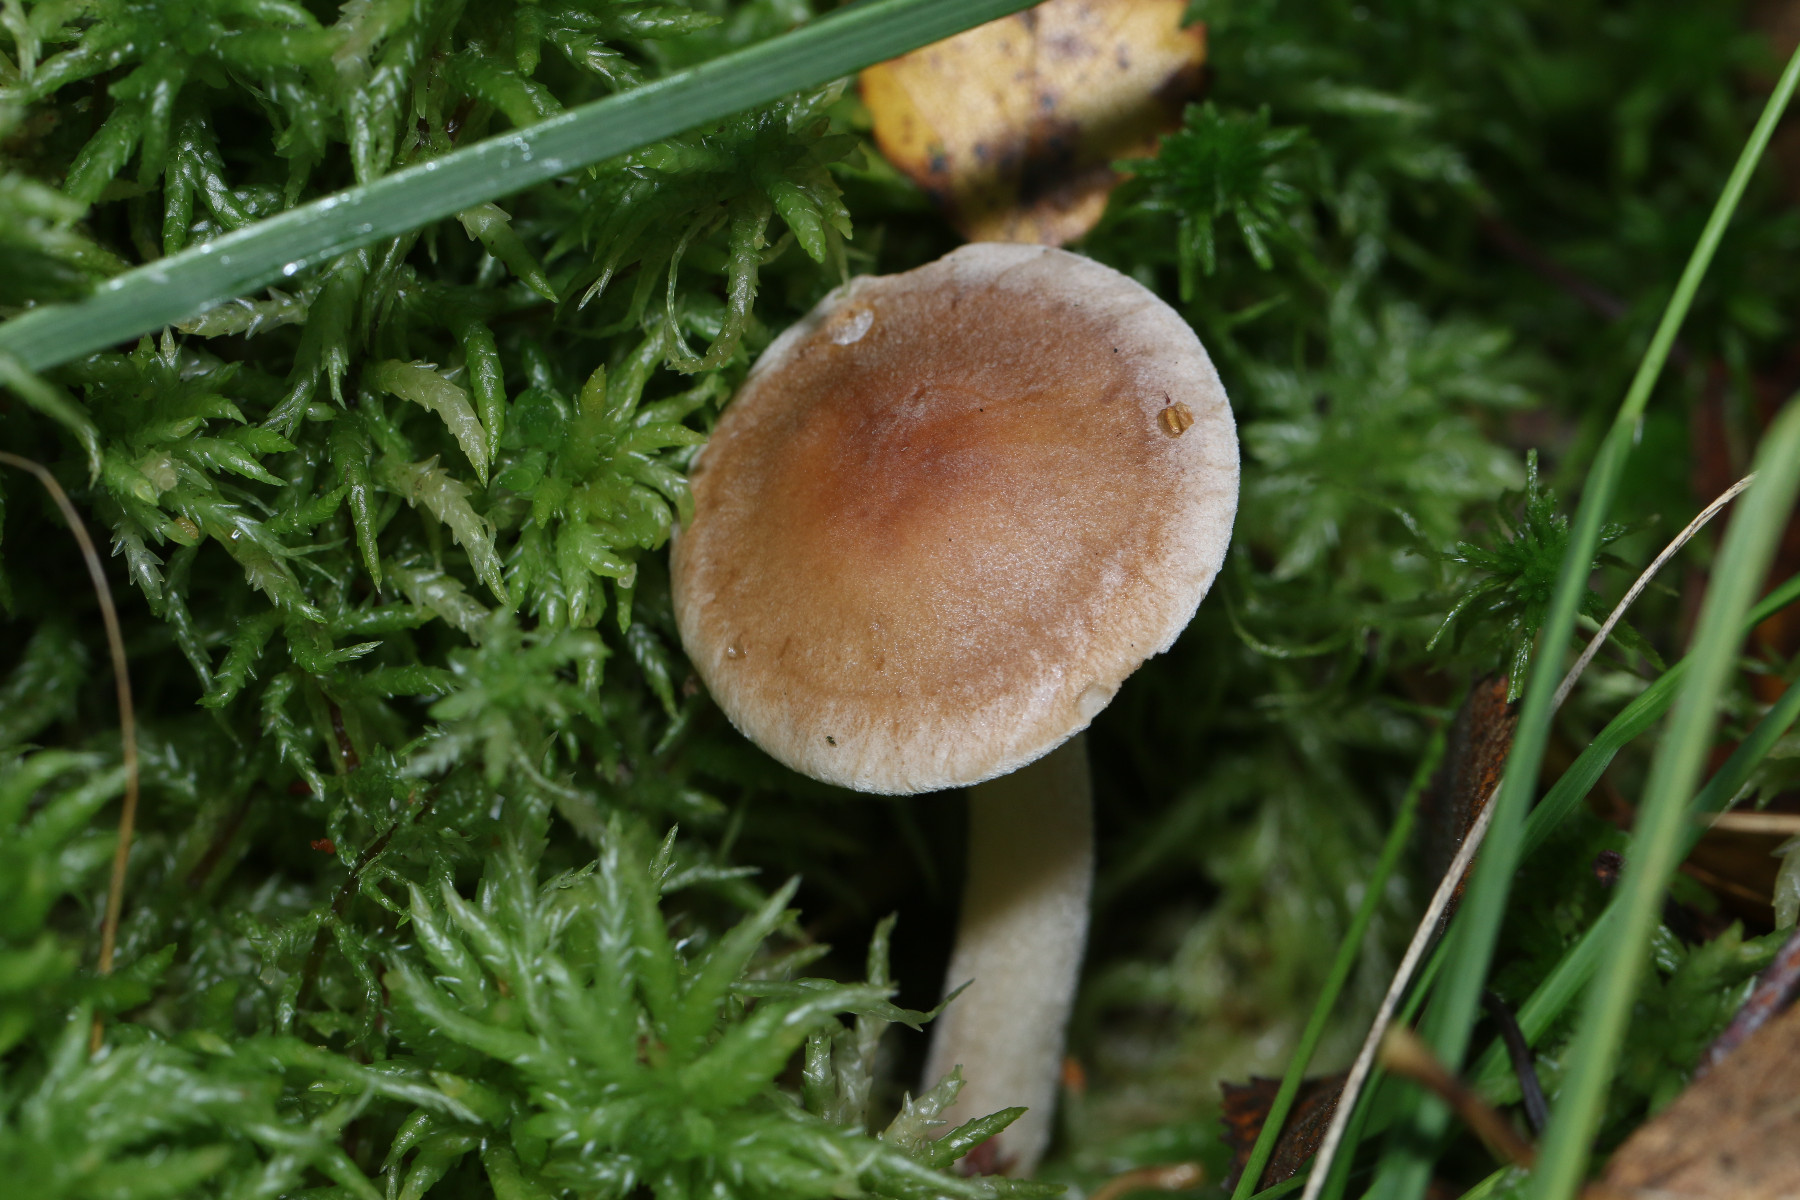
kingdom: Fungi
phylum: Basidiomycota
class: Agaricomycetes
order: Agaricales
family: Hymenogastraceae
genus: Hebeloma
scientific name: Hebeloma
